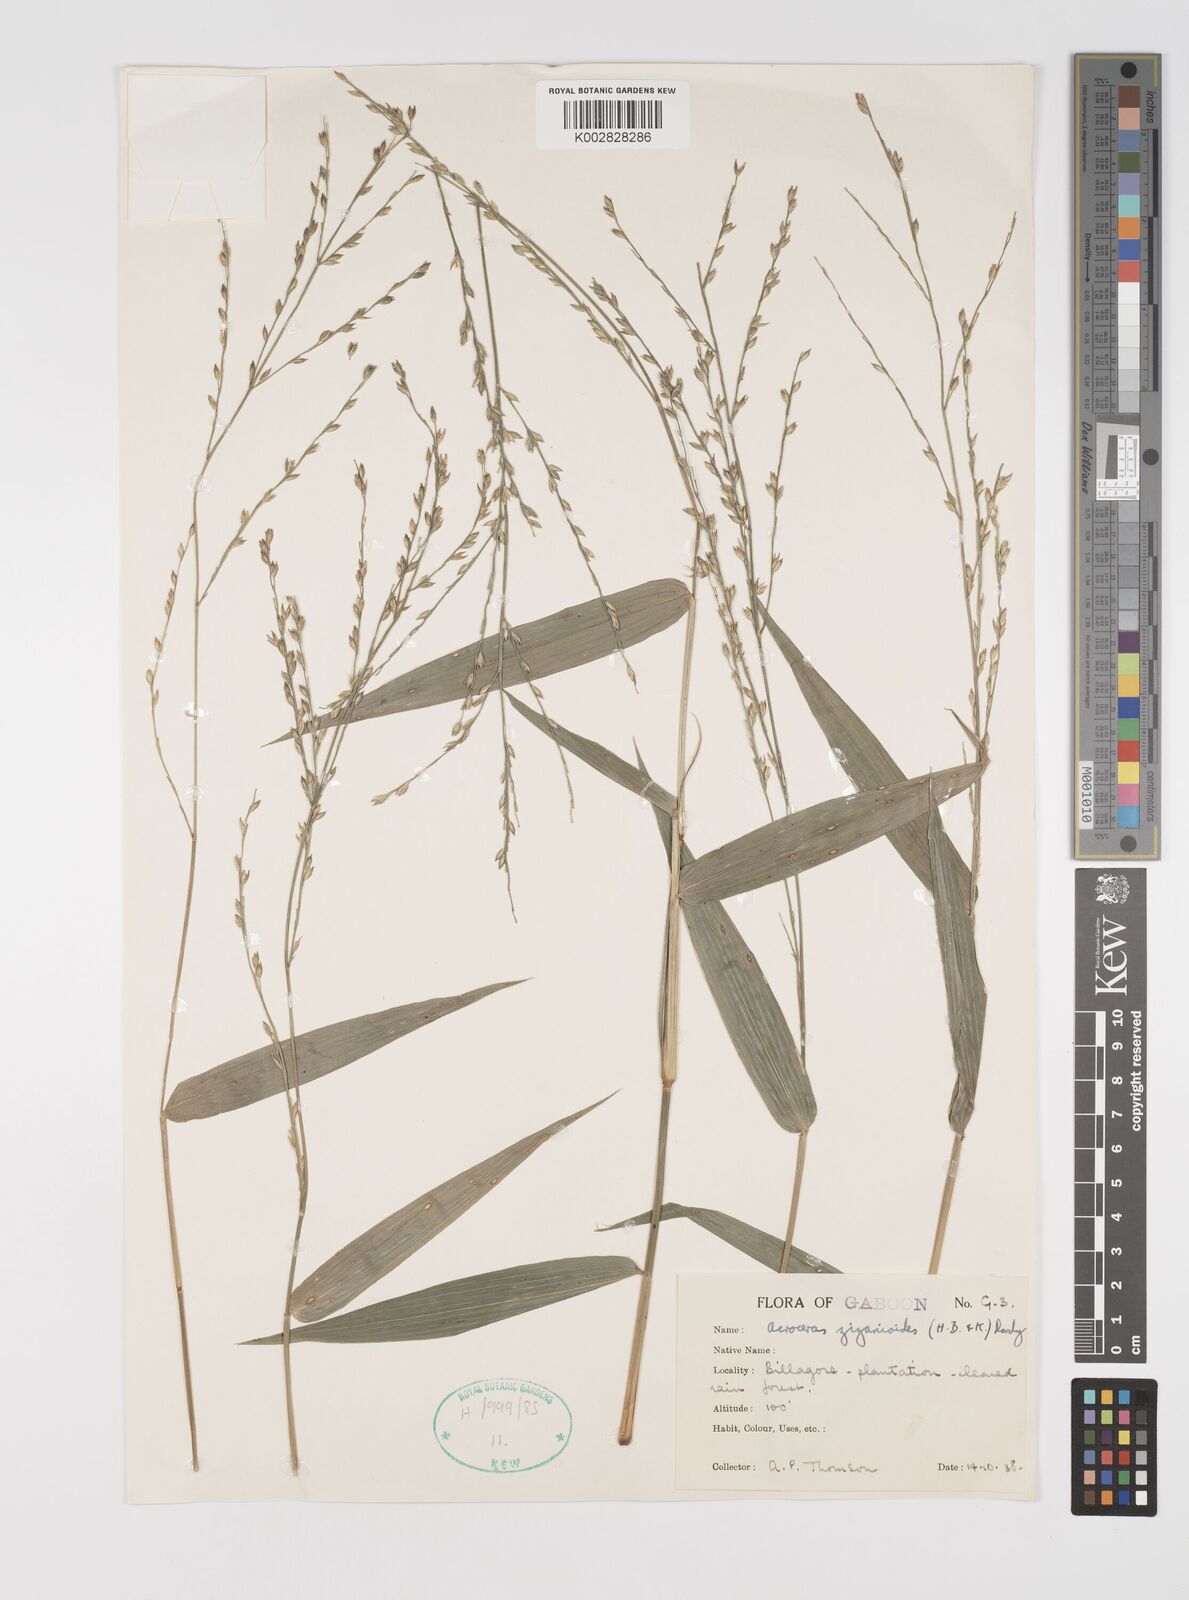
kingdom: Plantae
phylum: Tracheophyta
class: Liliopsida
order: Poales
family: Poaceae
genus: Acroceras
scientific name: Acroceras zizanioides
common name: Oat grass
